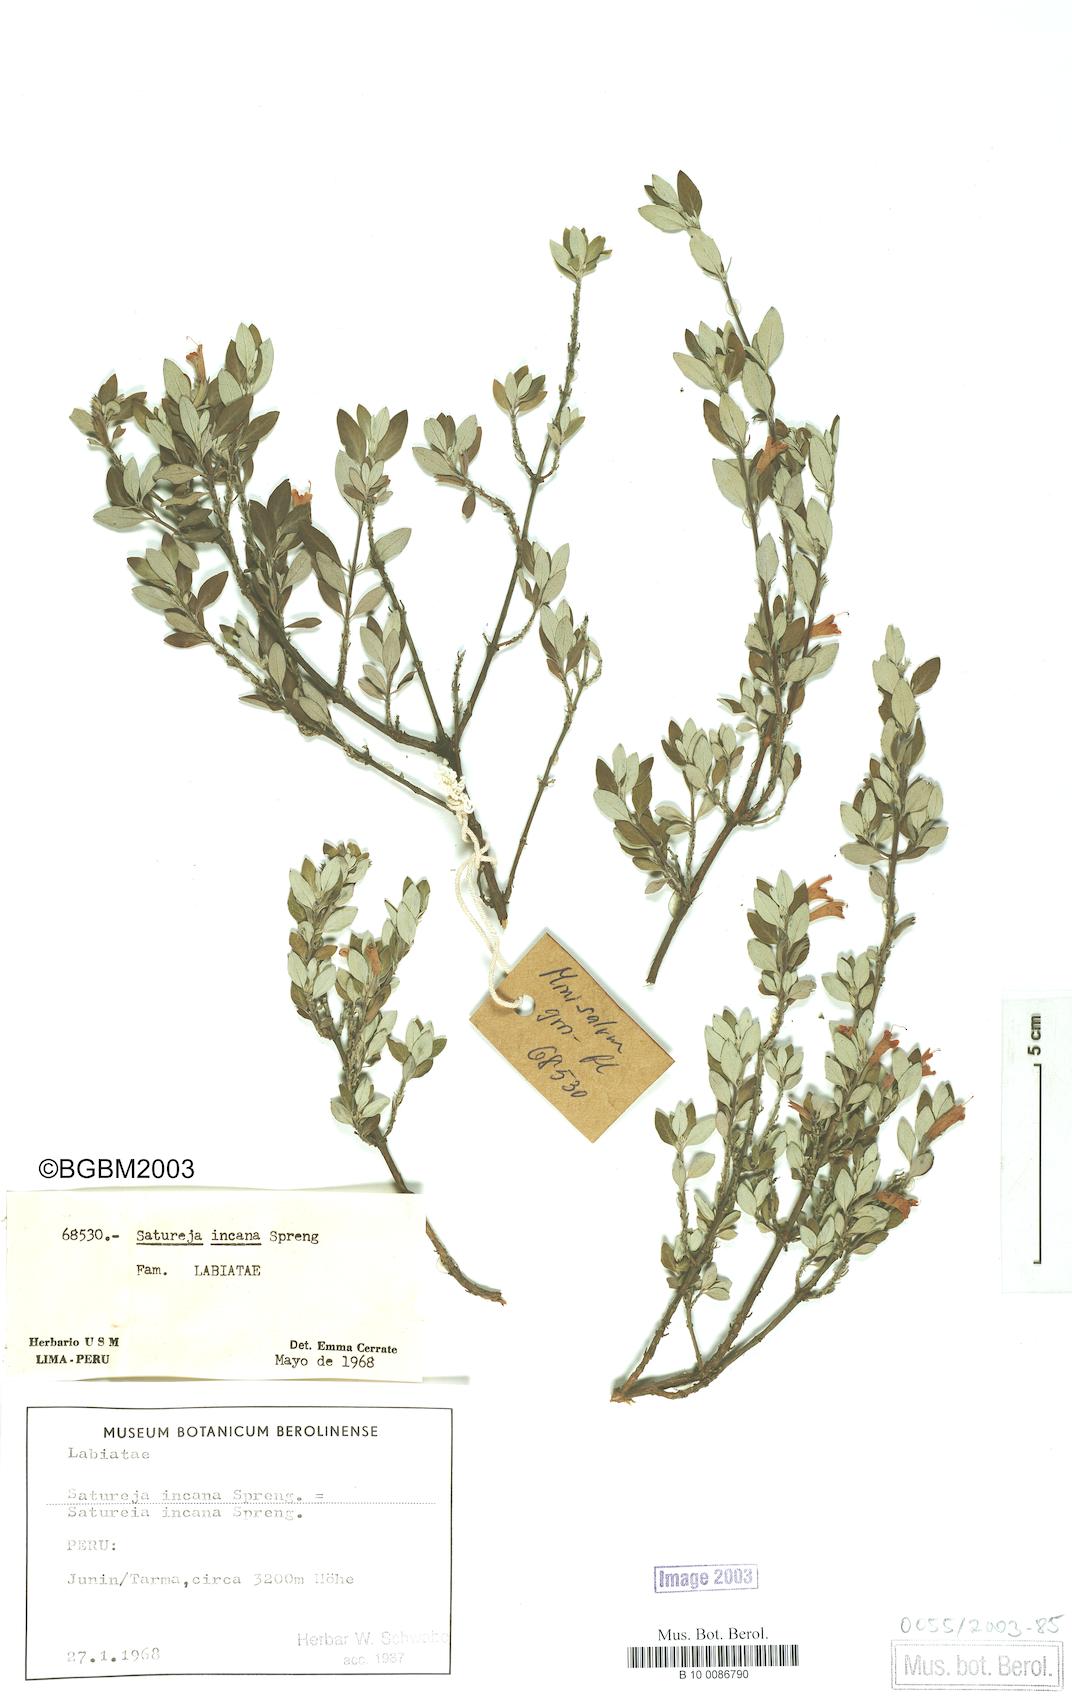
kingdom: Plantae
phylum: Tracheophyta
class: Magnoliopsida
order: Lamiales
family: Lamiaceae
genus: Clinopodium
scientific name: Clinopodium breviflorum
